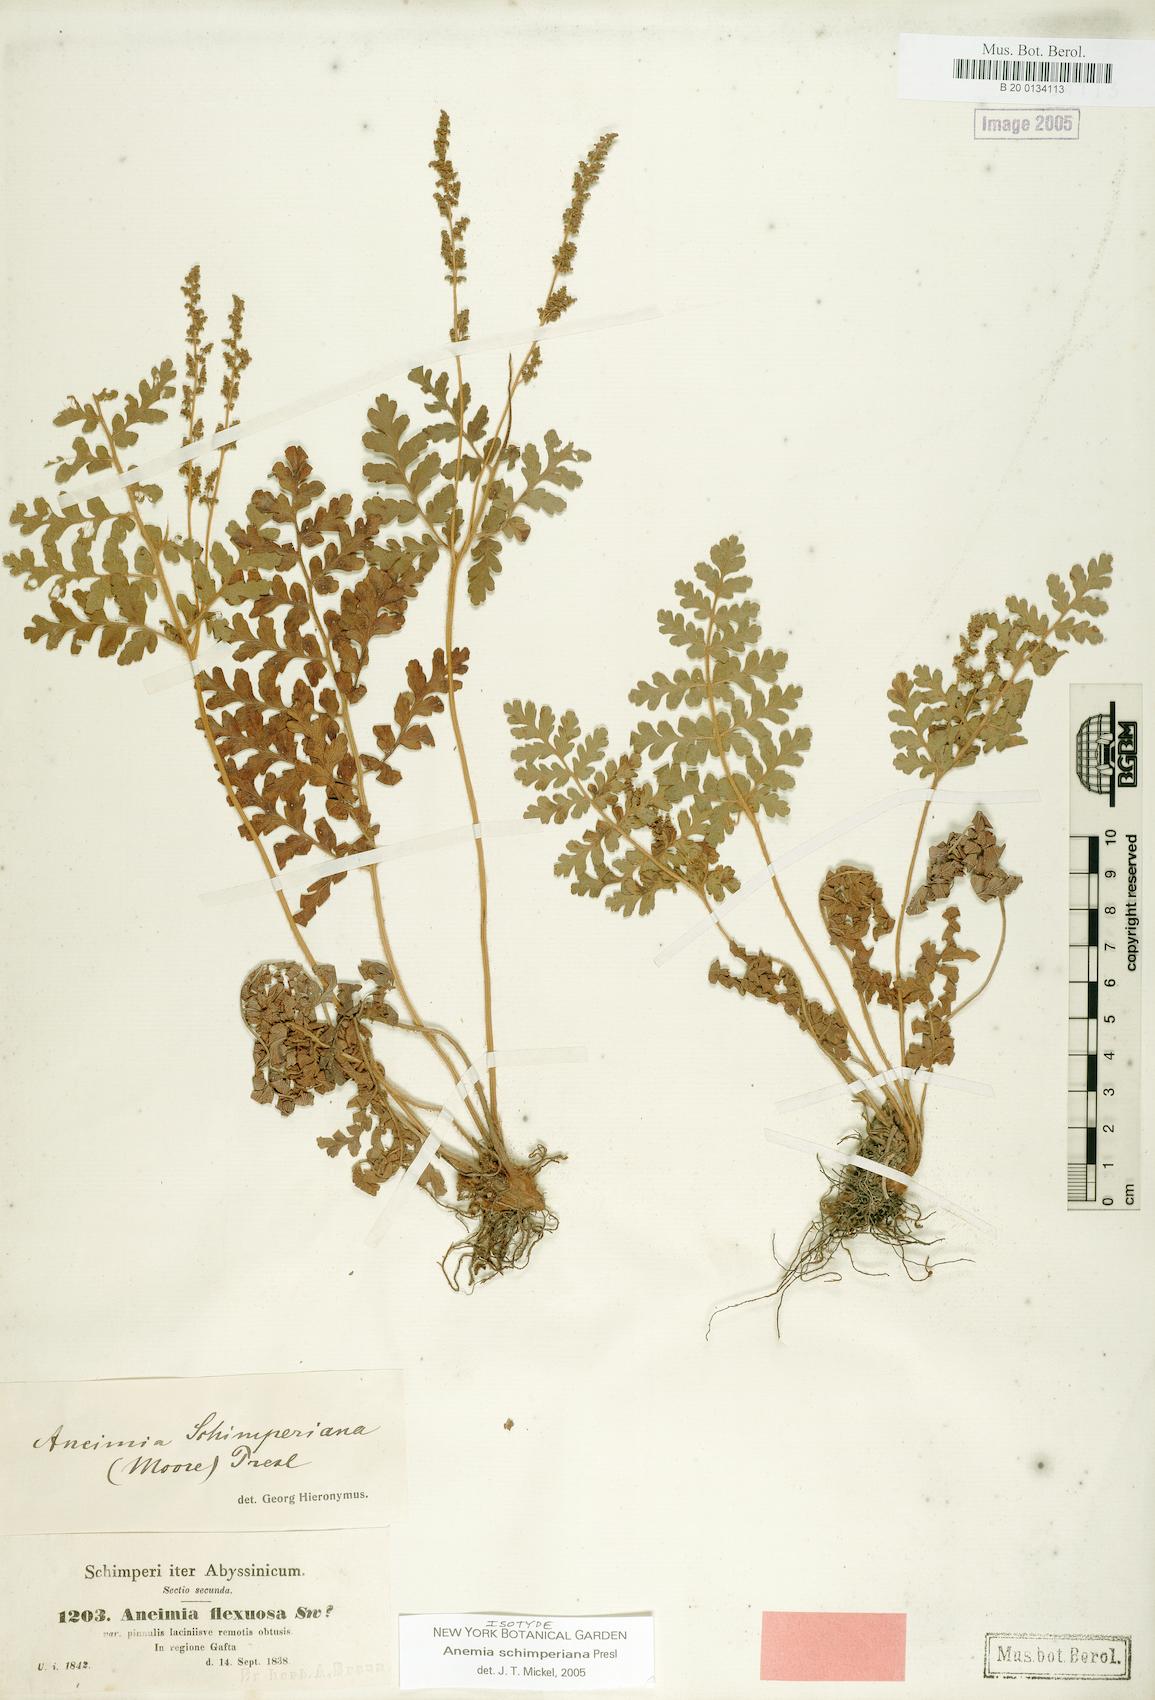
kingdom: Plantae
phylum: Tracheophyta
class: Polypodiopsida
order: Schizaeales
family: Anemiaceae
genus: Anemia
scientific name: Anemia schimperiana
